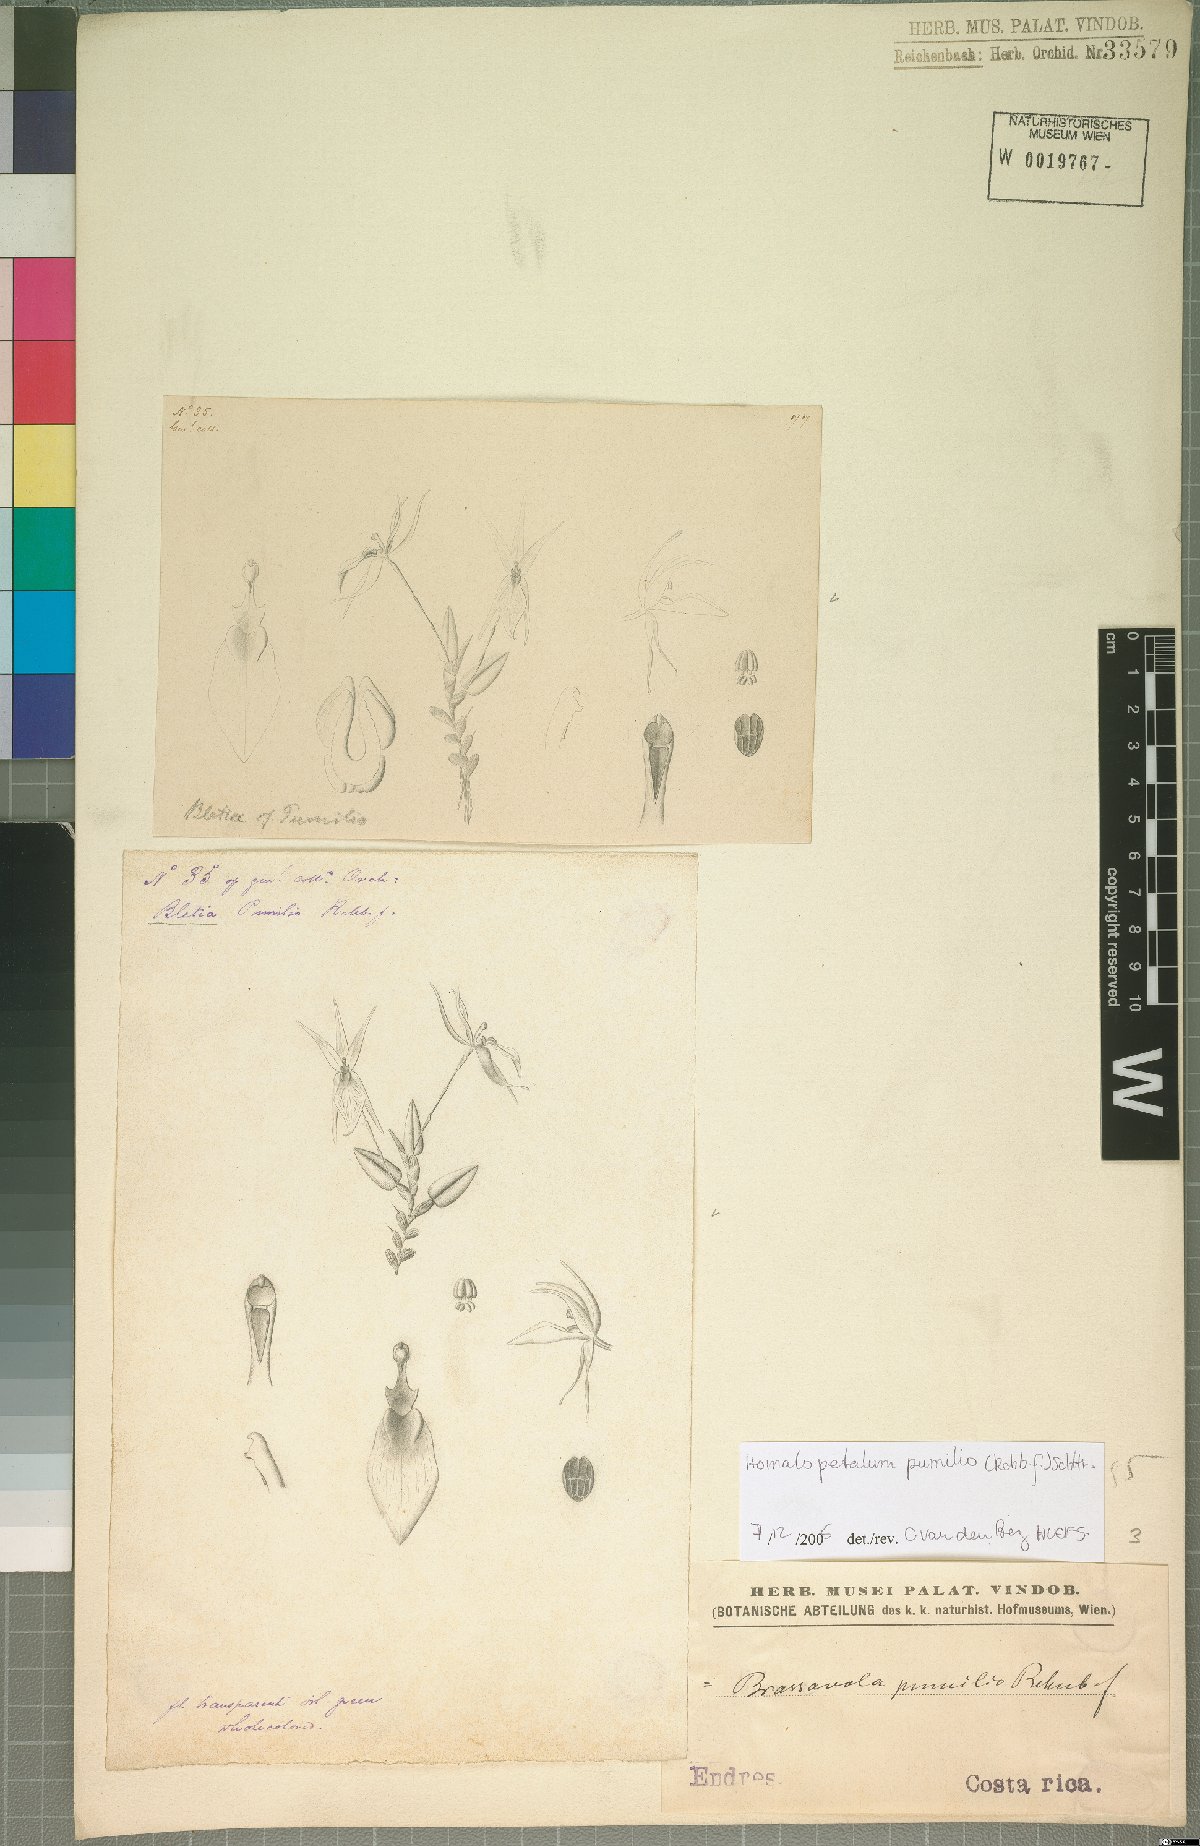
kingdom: Plantae
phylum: Tracheophyta
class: Liliopsida
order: Asparagales
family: Orchidaceae
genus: Homalopetalum
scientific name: Homalopetalum pumilio
